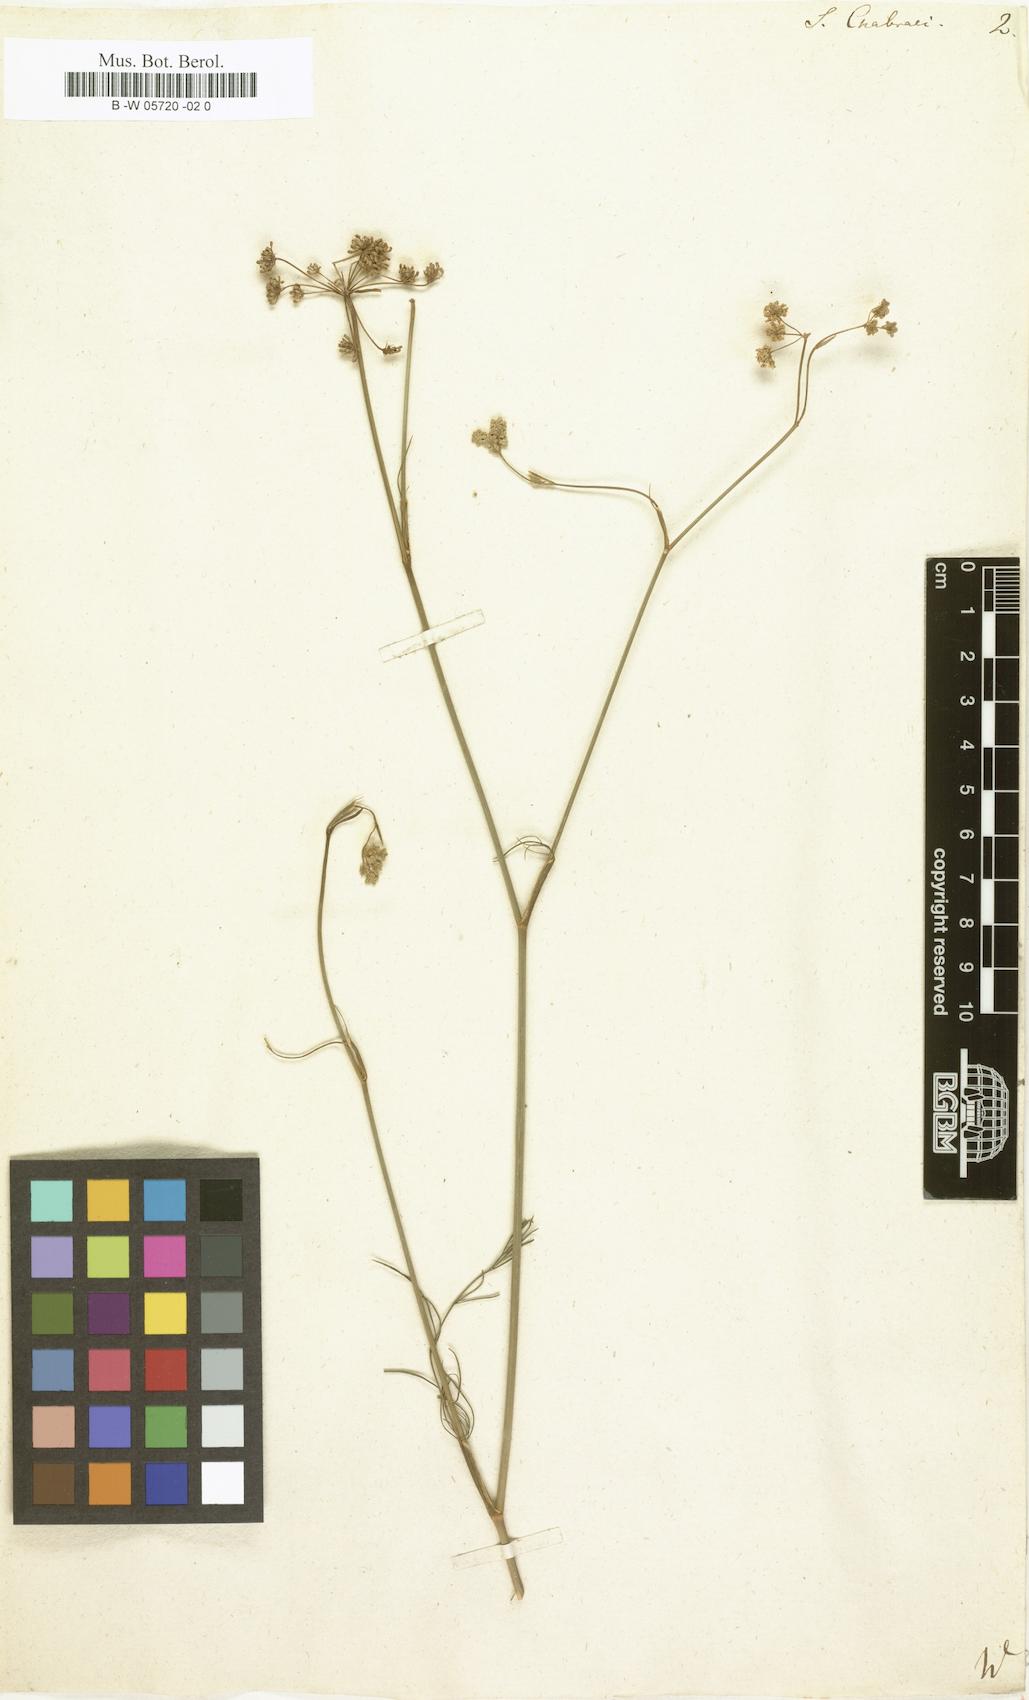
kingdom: Plantae
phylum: Tracheophyta
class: Magnoliopsida
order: Apiales
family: Apiaceae
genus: Selinum
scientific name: Selinum chabraei
